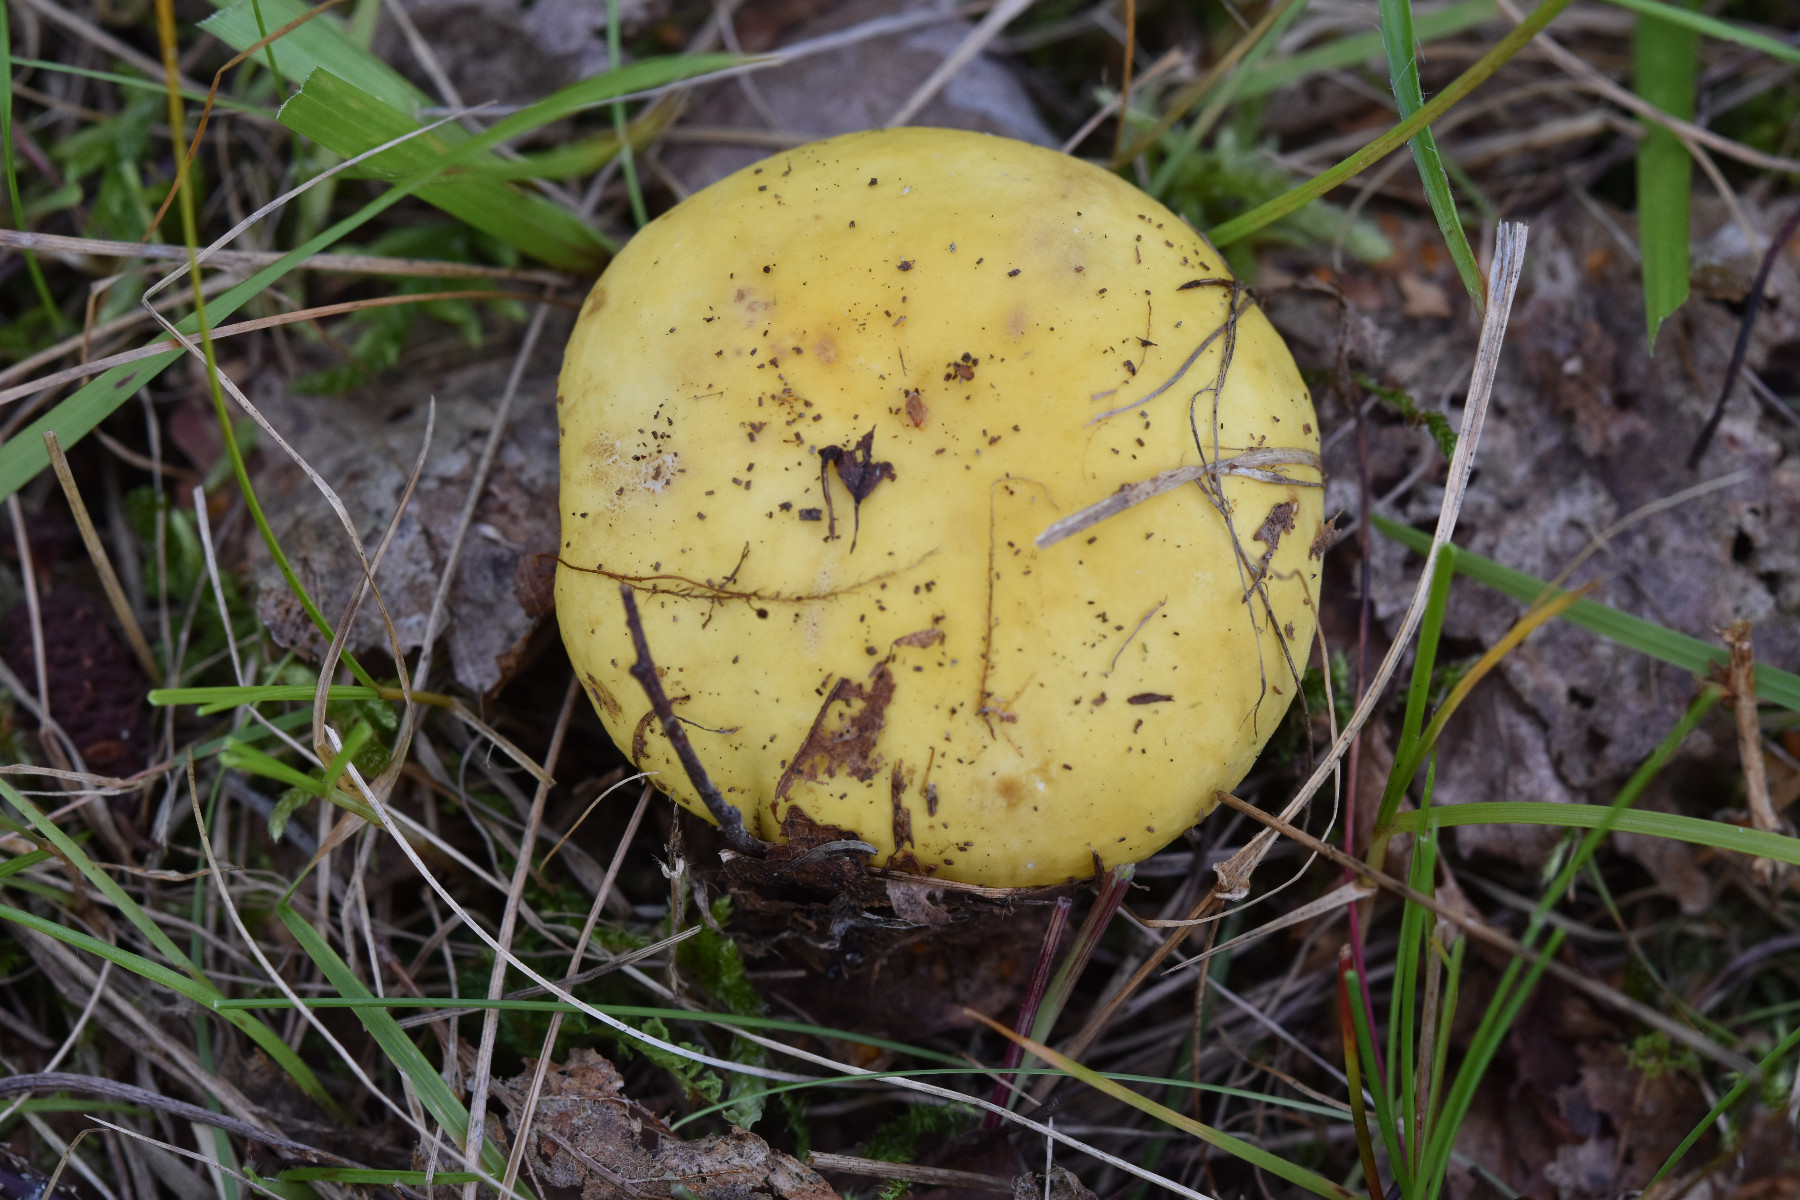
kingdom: Fungi
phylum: Basidiomycota
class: Agaricomycetes
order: Russulales
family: Russulaceae
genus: Russula
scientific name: Russula claroflava
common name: birke-skørhat
